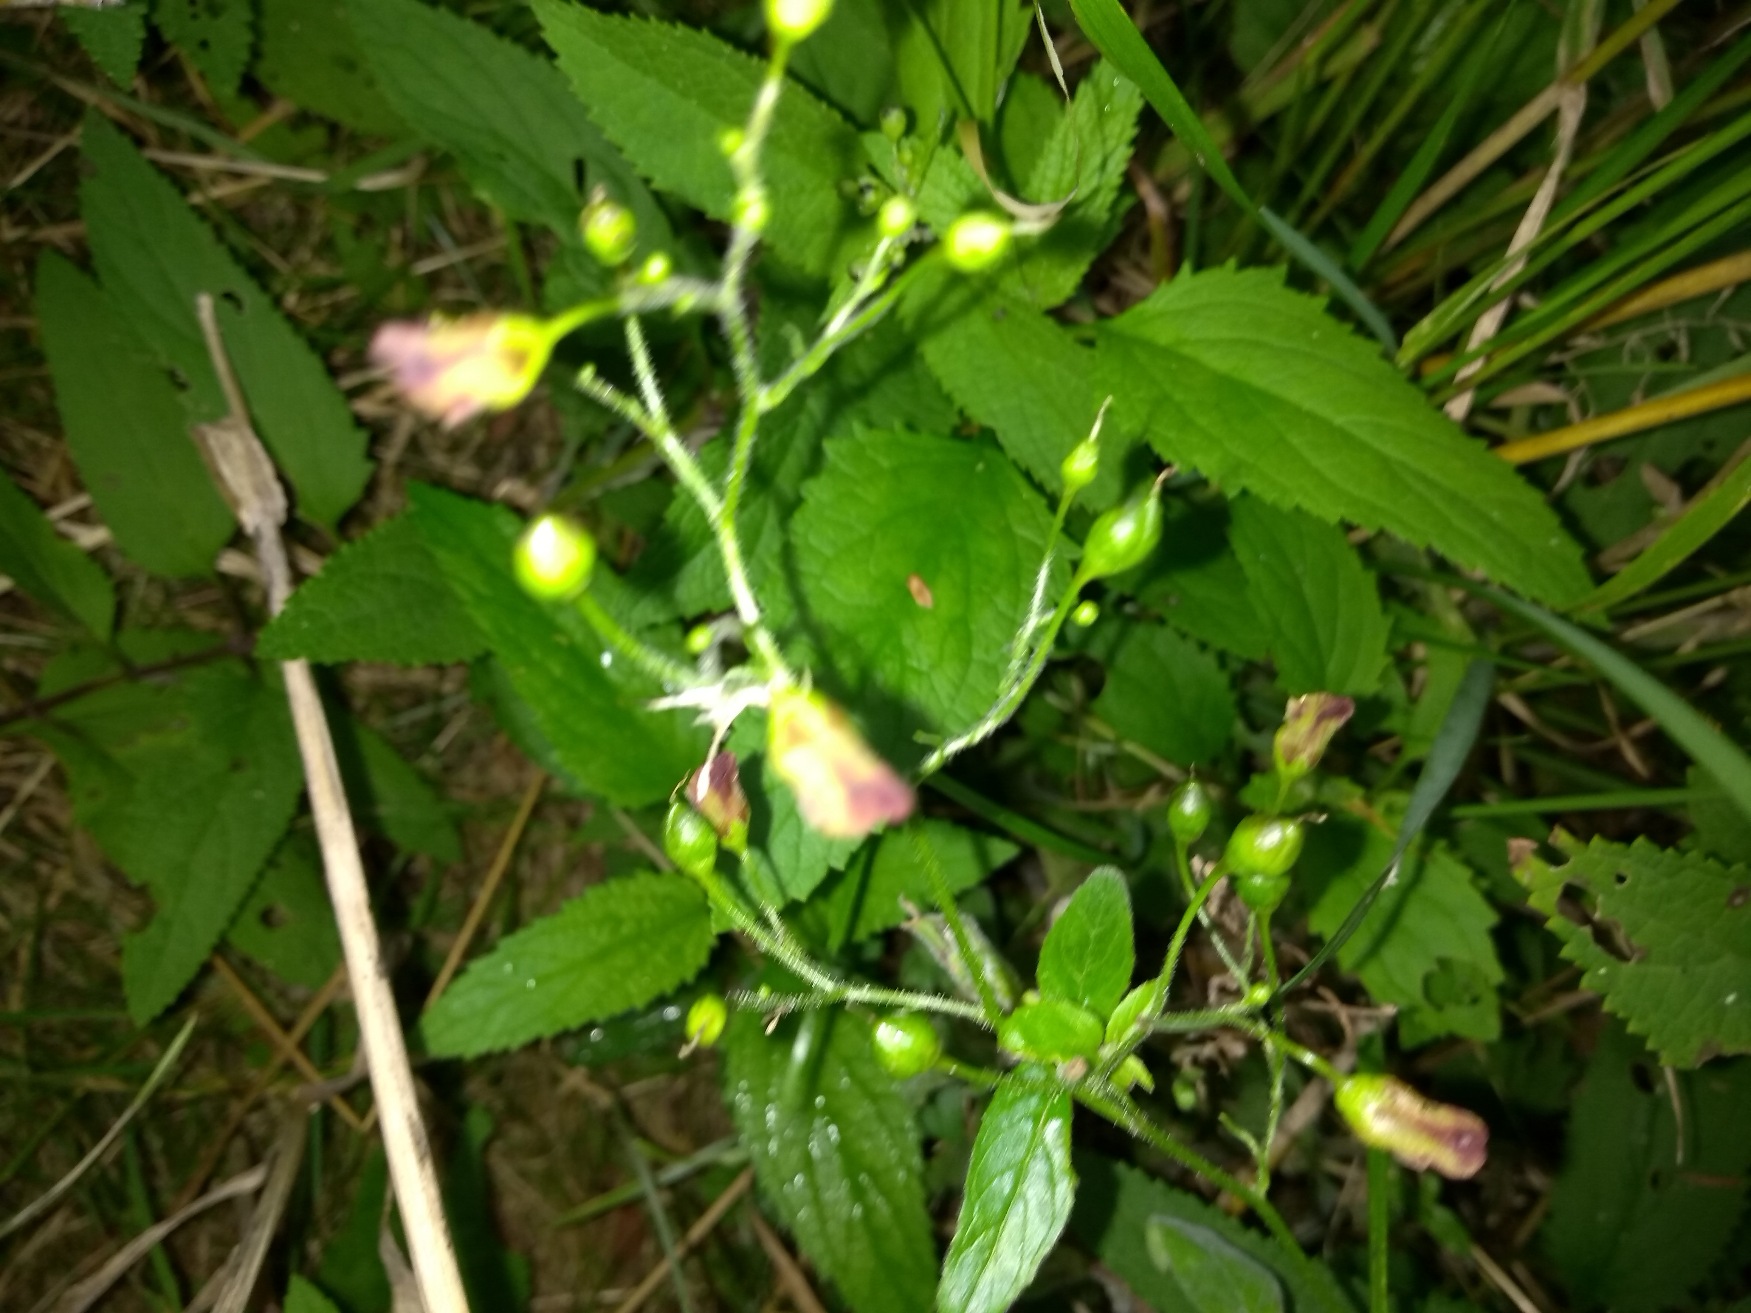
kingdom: Plantae
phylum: Tracheophyta
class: Magnoliopsida
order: Lamiales
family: Scrophulariaceae
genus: Scrophularia
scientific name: Scrophularia nodosa
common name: Knoldet brunrod
